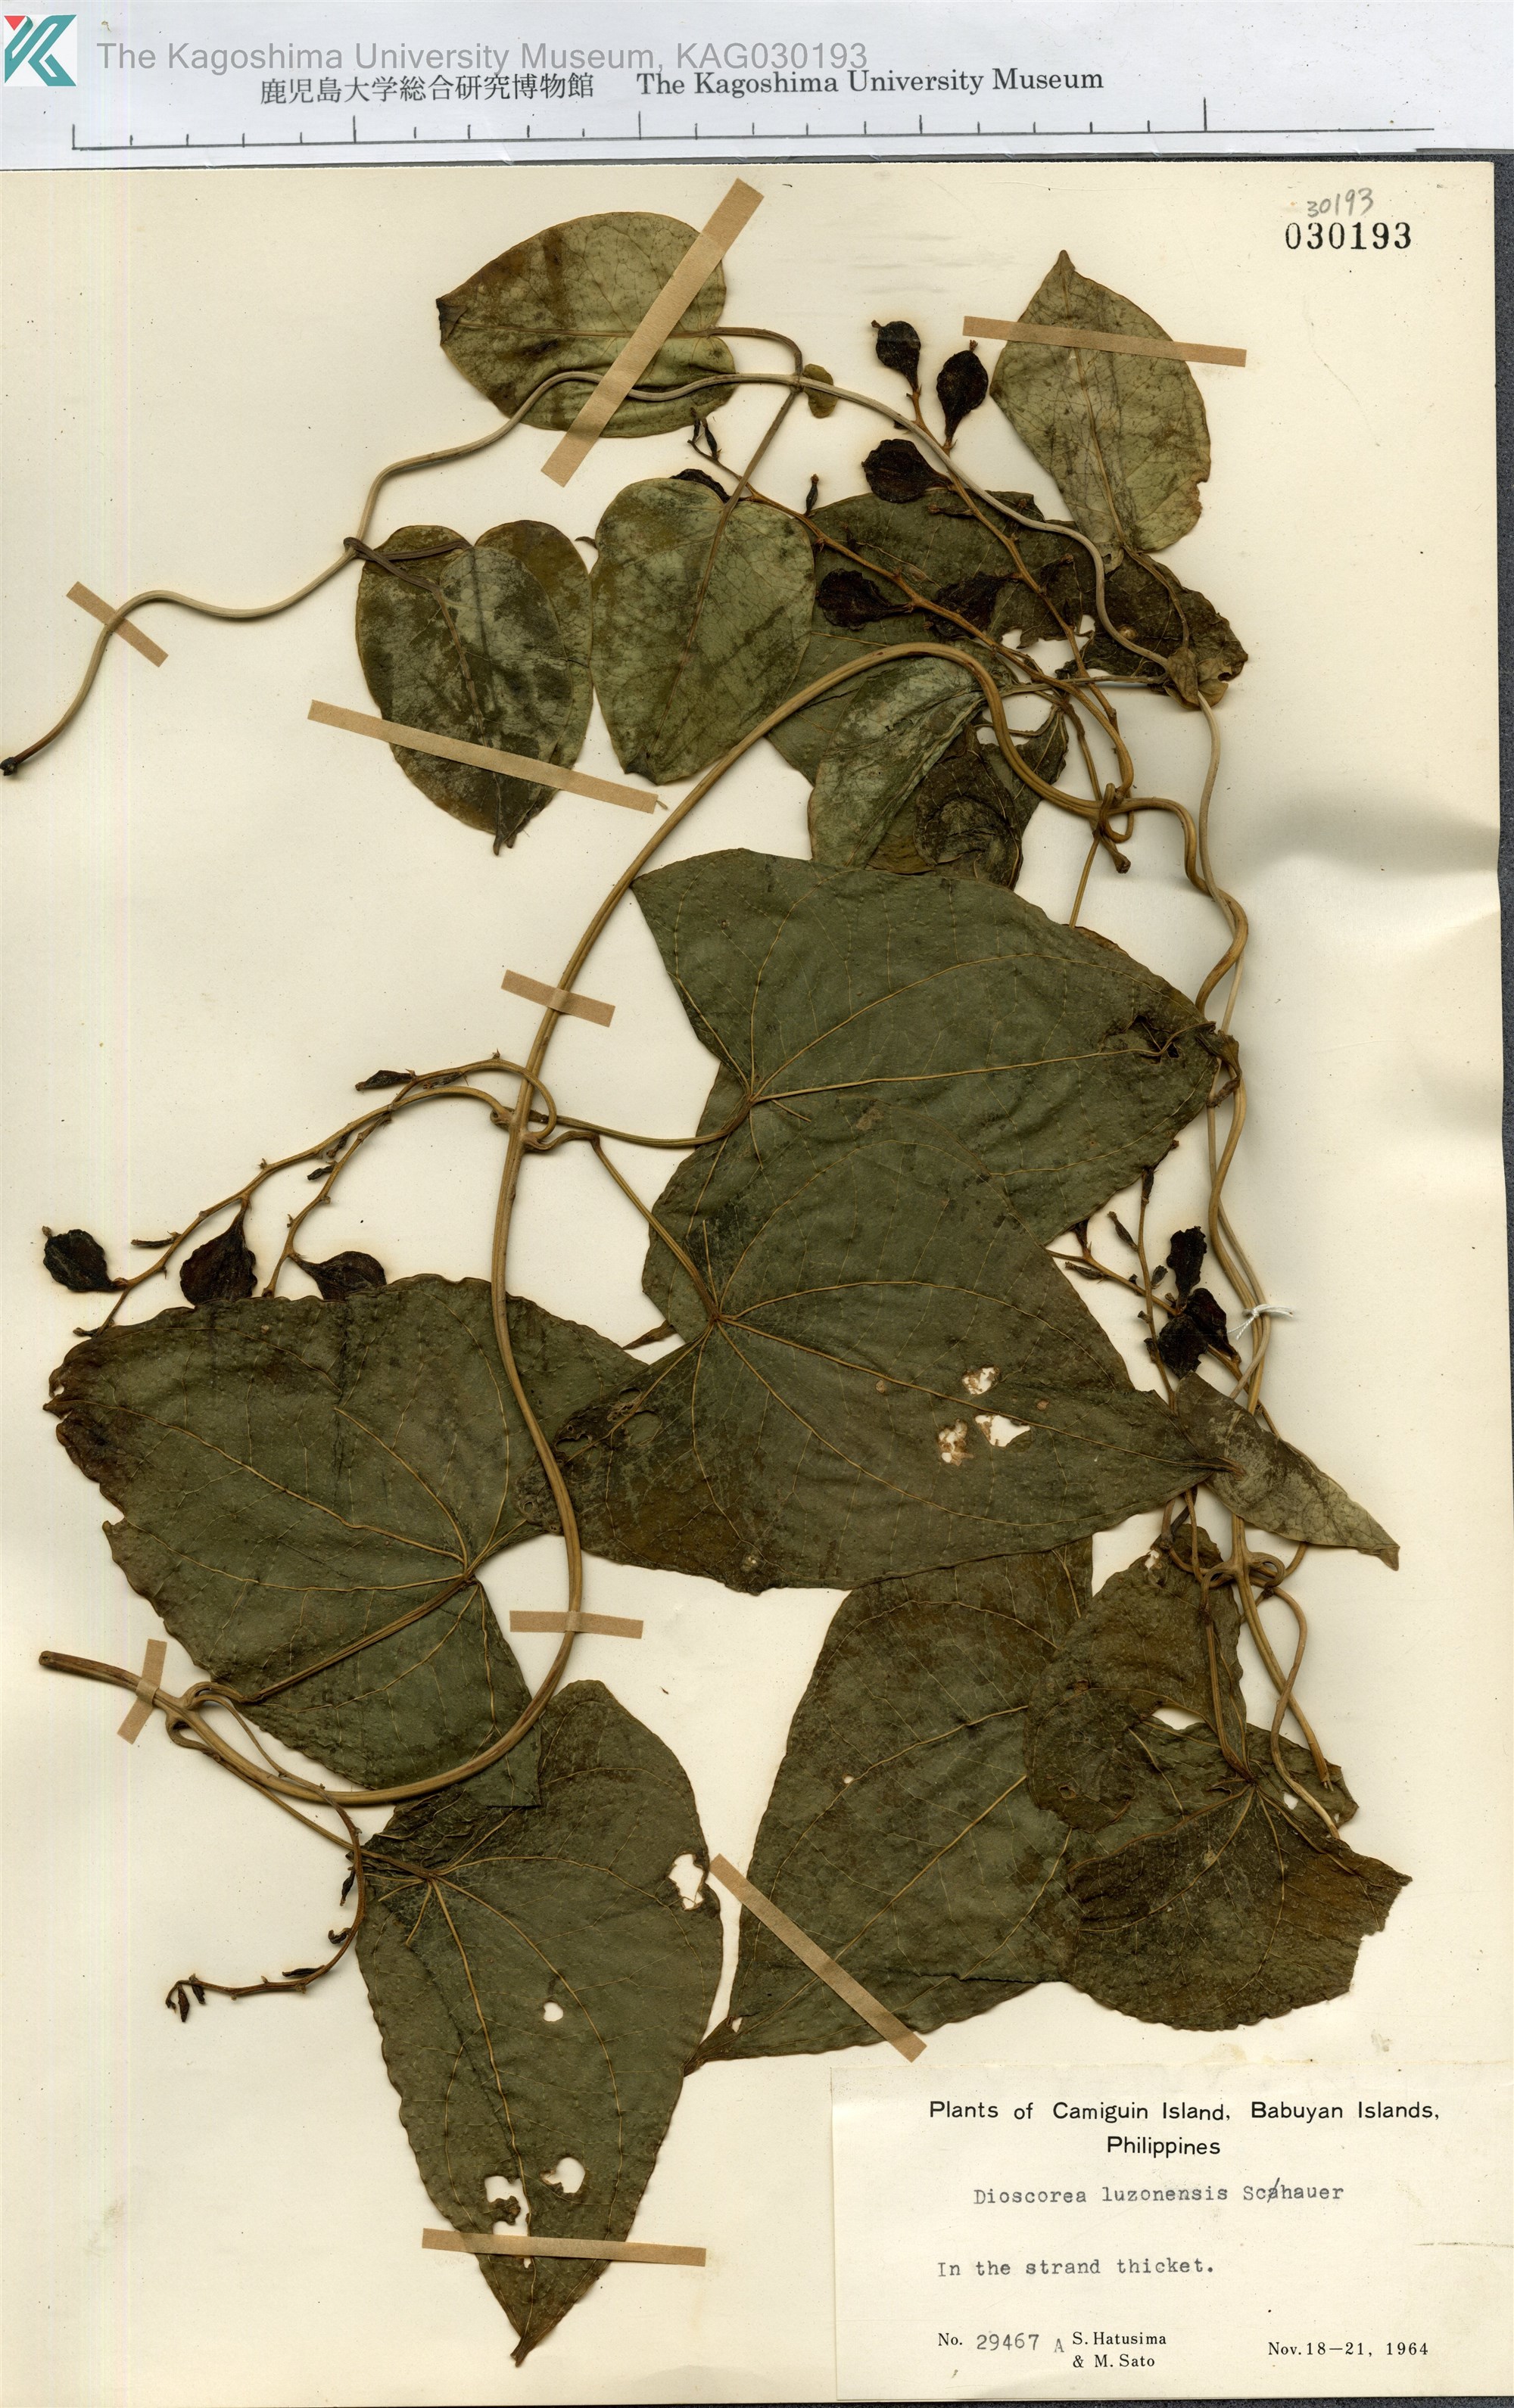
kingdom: Plantae
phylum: Tracheophyta
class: Liliopsida
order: Dioscoreales
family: Dioscoreaceae
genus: Dioscorea
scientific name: Dioscorea luzonensis
